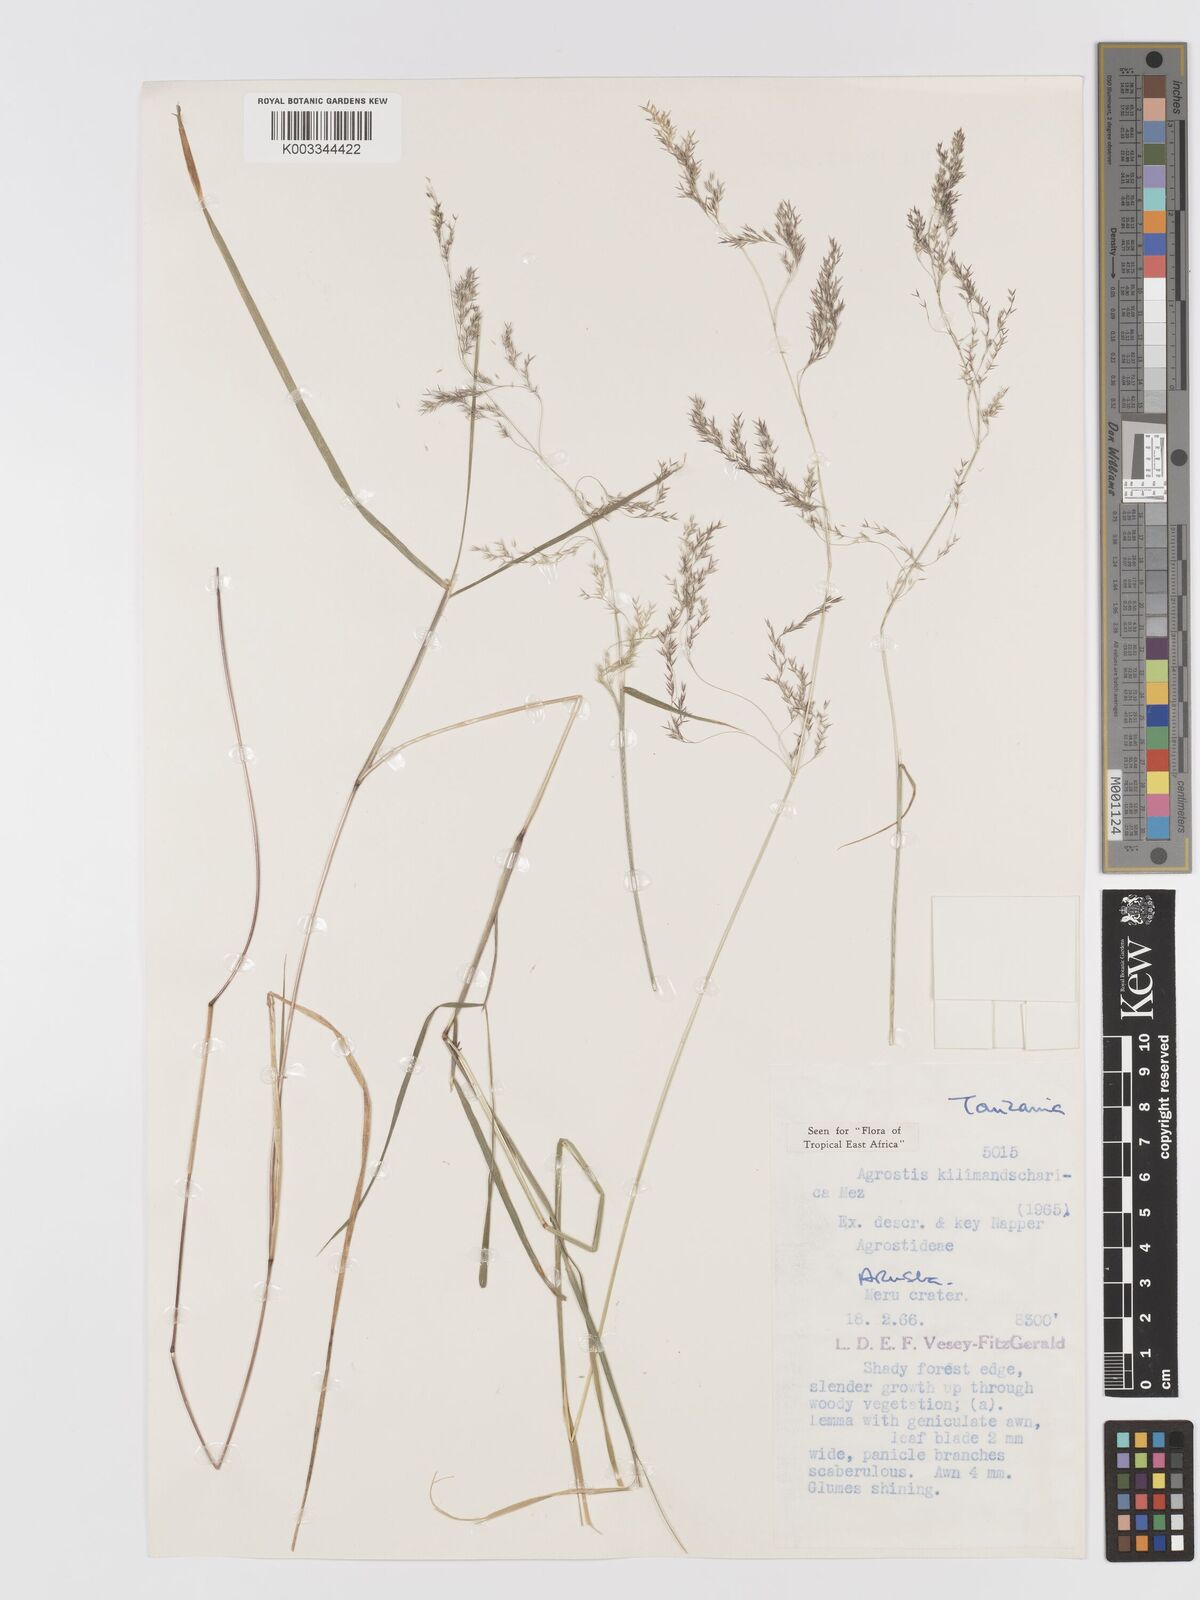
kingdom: Plantae
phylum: Tracheophyta
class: Liliopsida
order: Poales
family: Poaceae
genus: Agrostis
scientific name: Agrostis kilimandscharica
